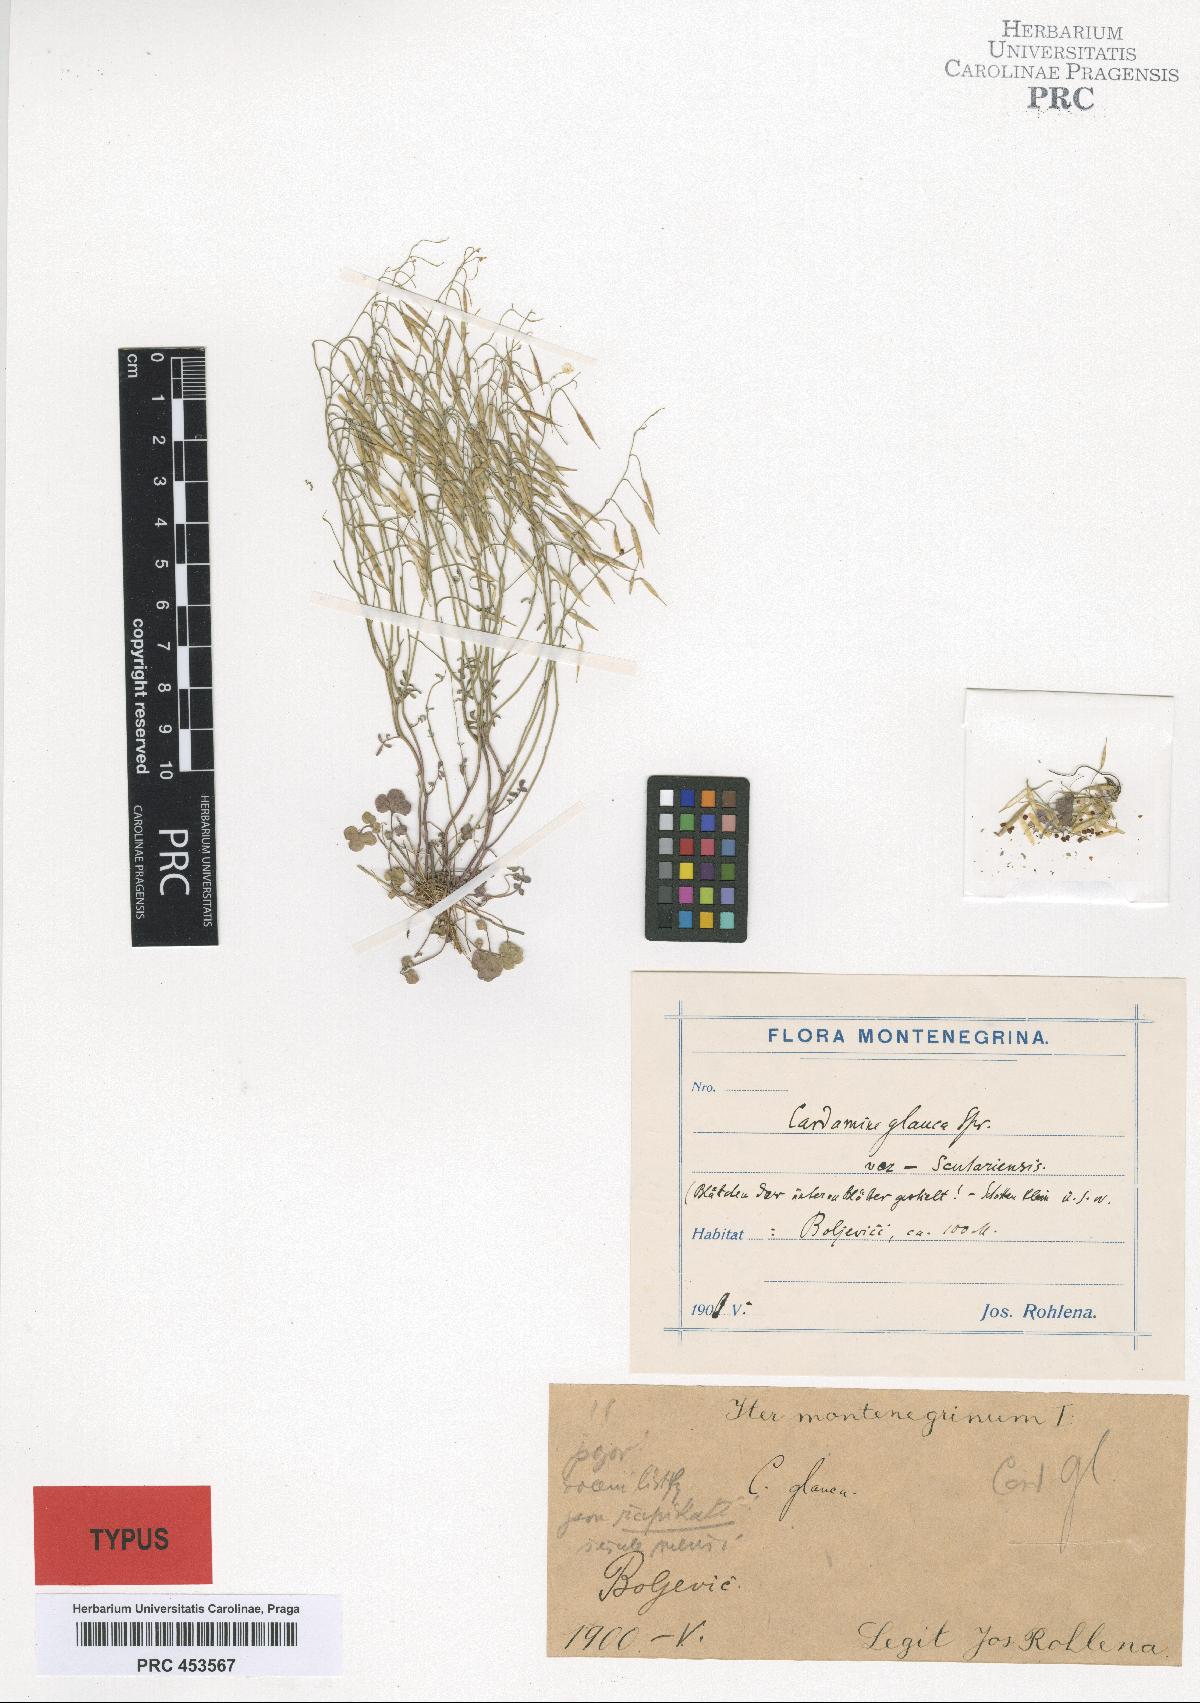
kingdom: Plantae
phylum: Tracheophyta
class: Magnoliopsida
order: Brassicales
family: Brassicaceae
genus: Cardamine
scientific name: Cardamine glauca
